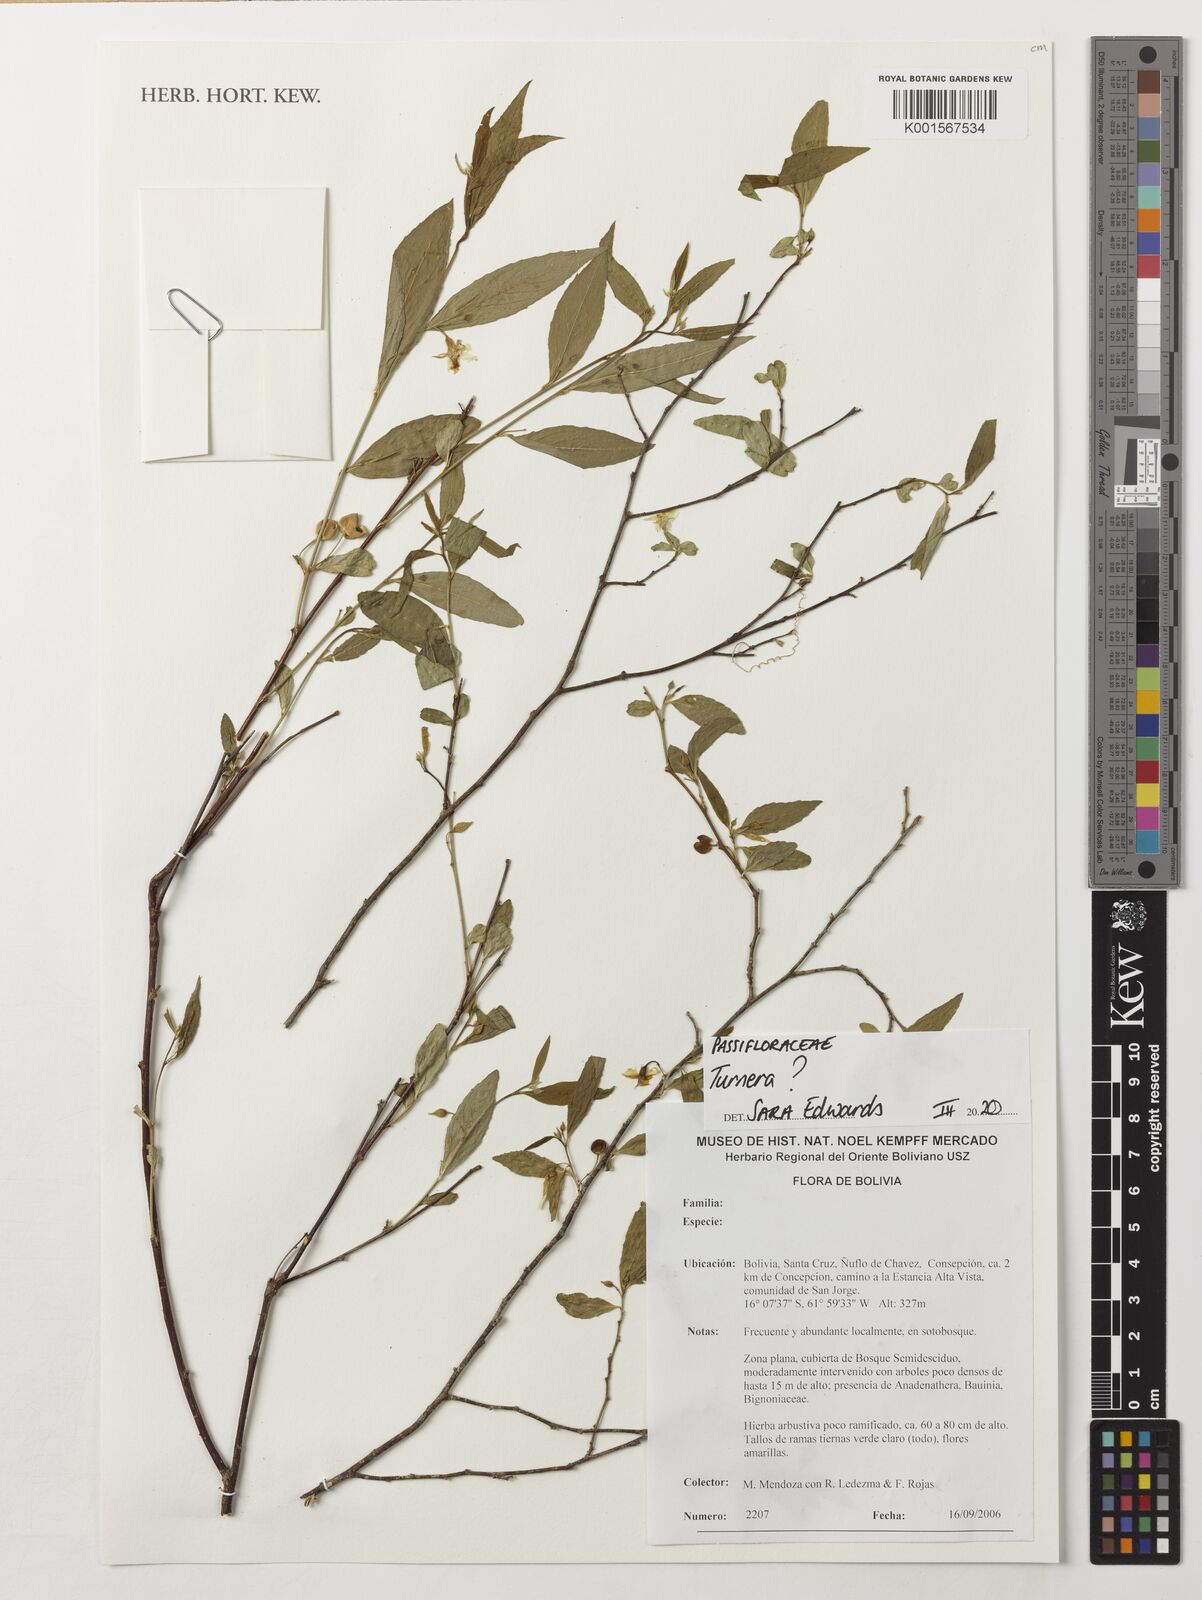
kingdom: Plantae
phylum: Tracheophyta
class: Magnoliopsida
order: Malpighiales
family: Turneraceae
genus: Turnera
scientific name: Turnera
